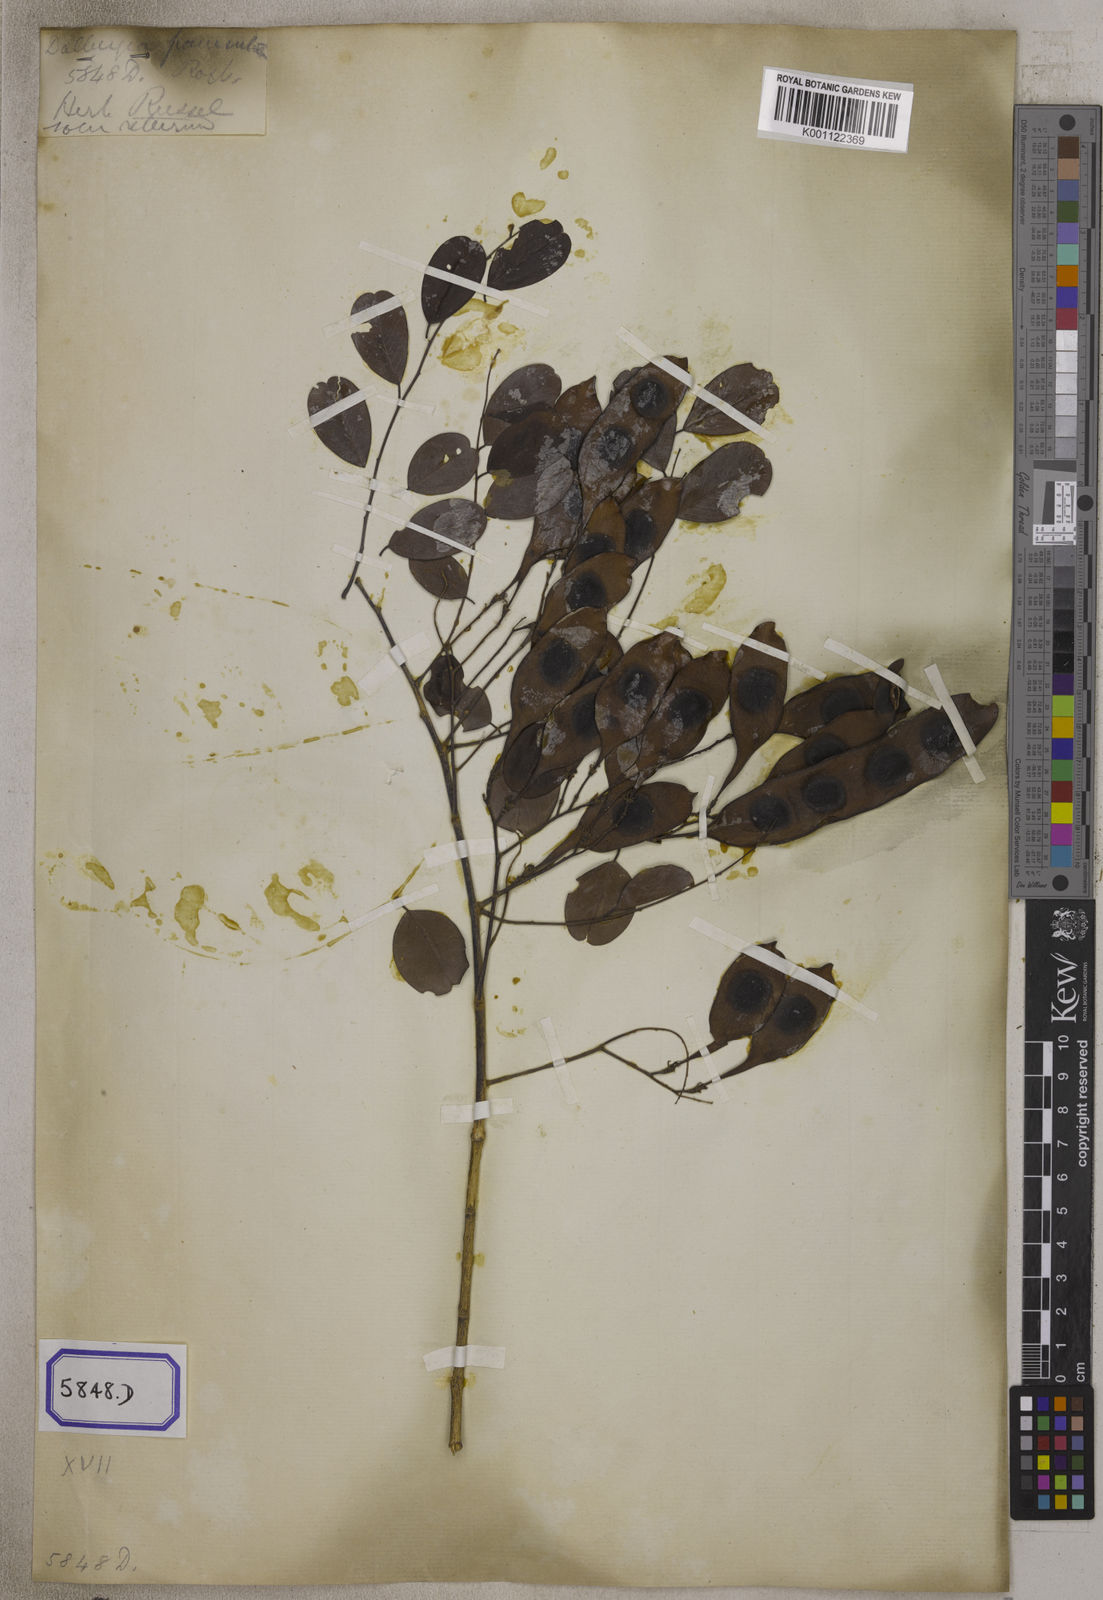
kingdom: Plantae
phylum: Tracheophyta
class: Magnoliopsida
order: Fabales
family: Fabaceae
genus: Dalbergia
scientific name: Dalbergia lanceolaria
